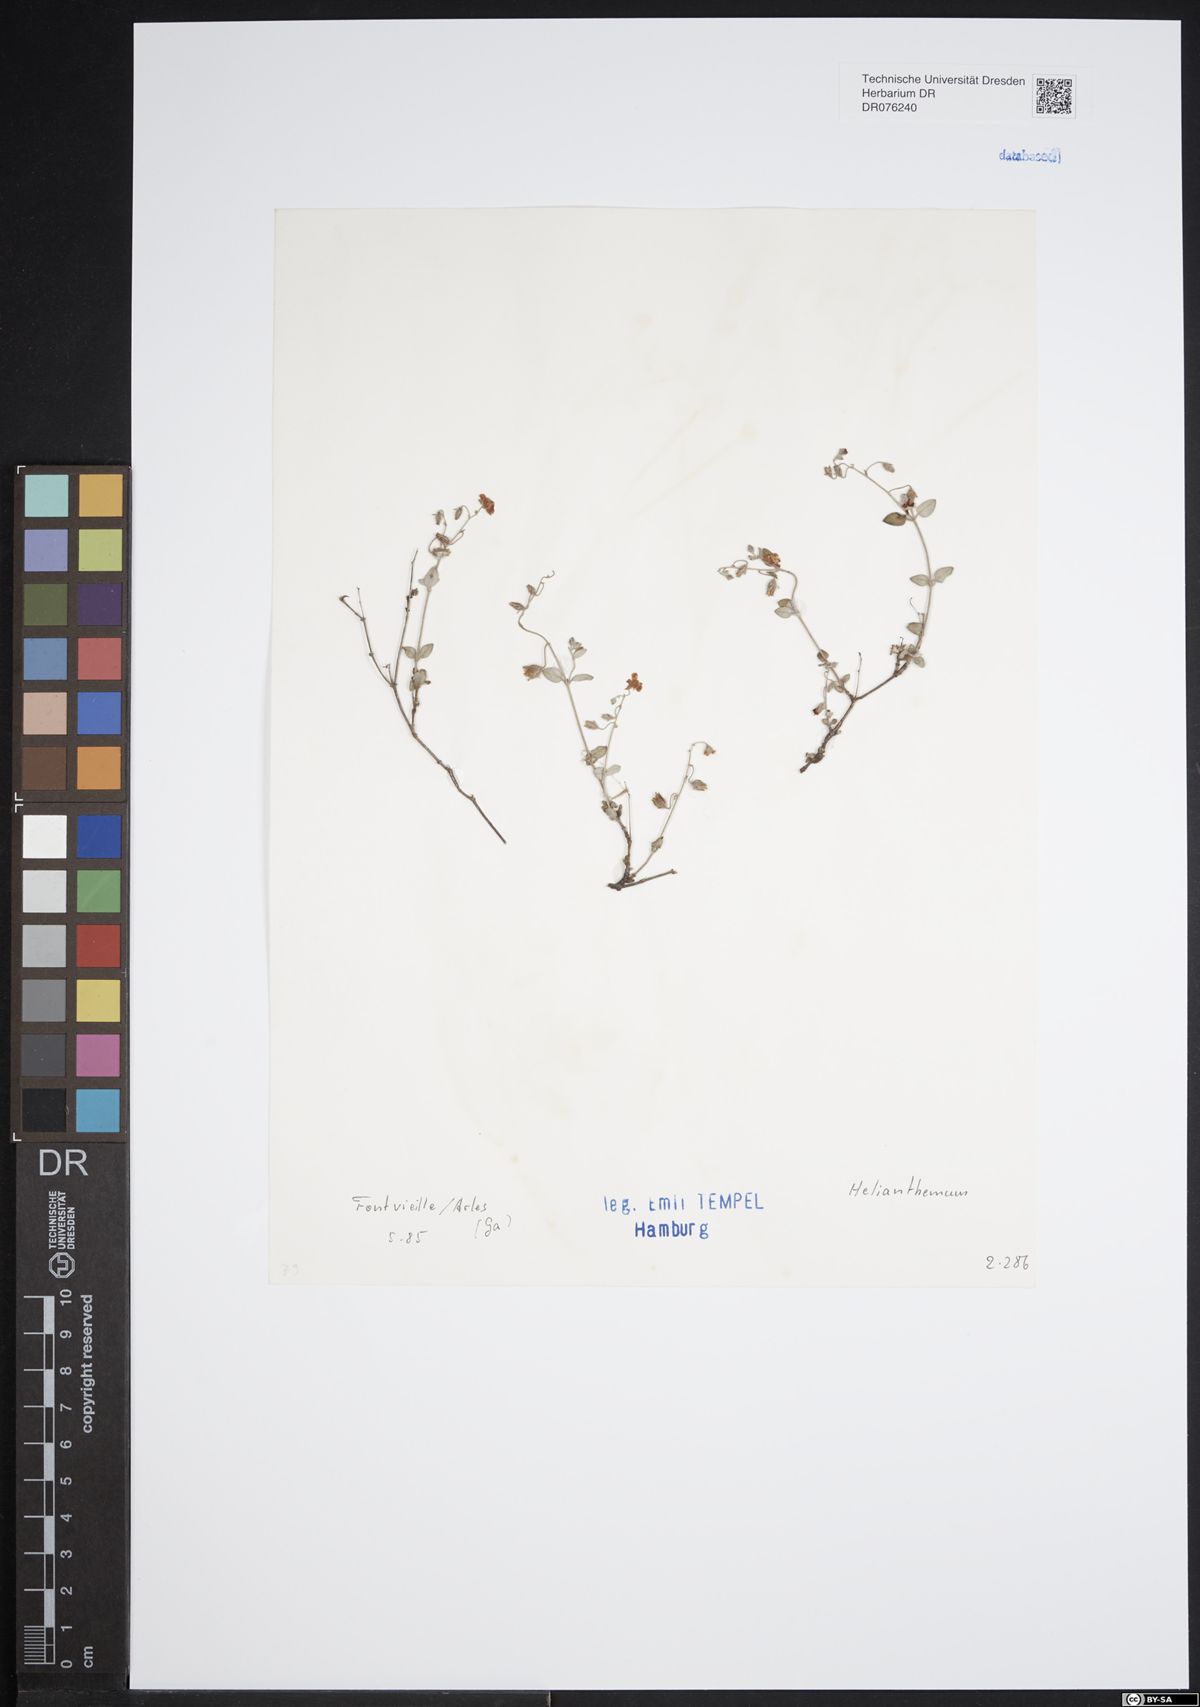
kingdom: Plantae
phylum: Tracheophyta
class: Magnoliopsida
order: Malvales
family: Cistaceae
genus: Helianthemum
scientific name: Helianthemum
